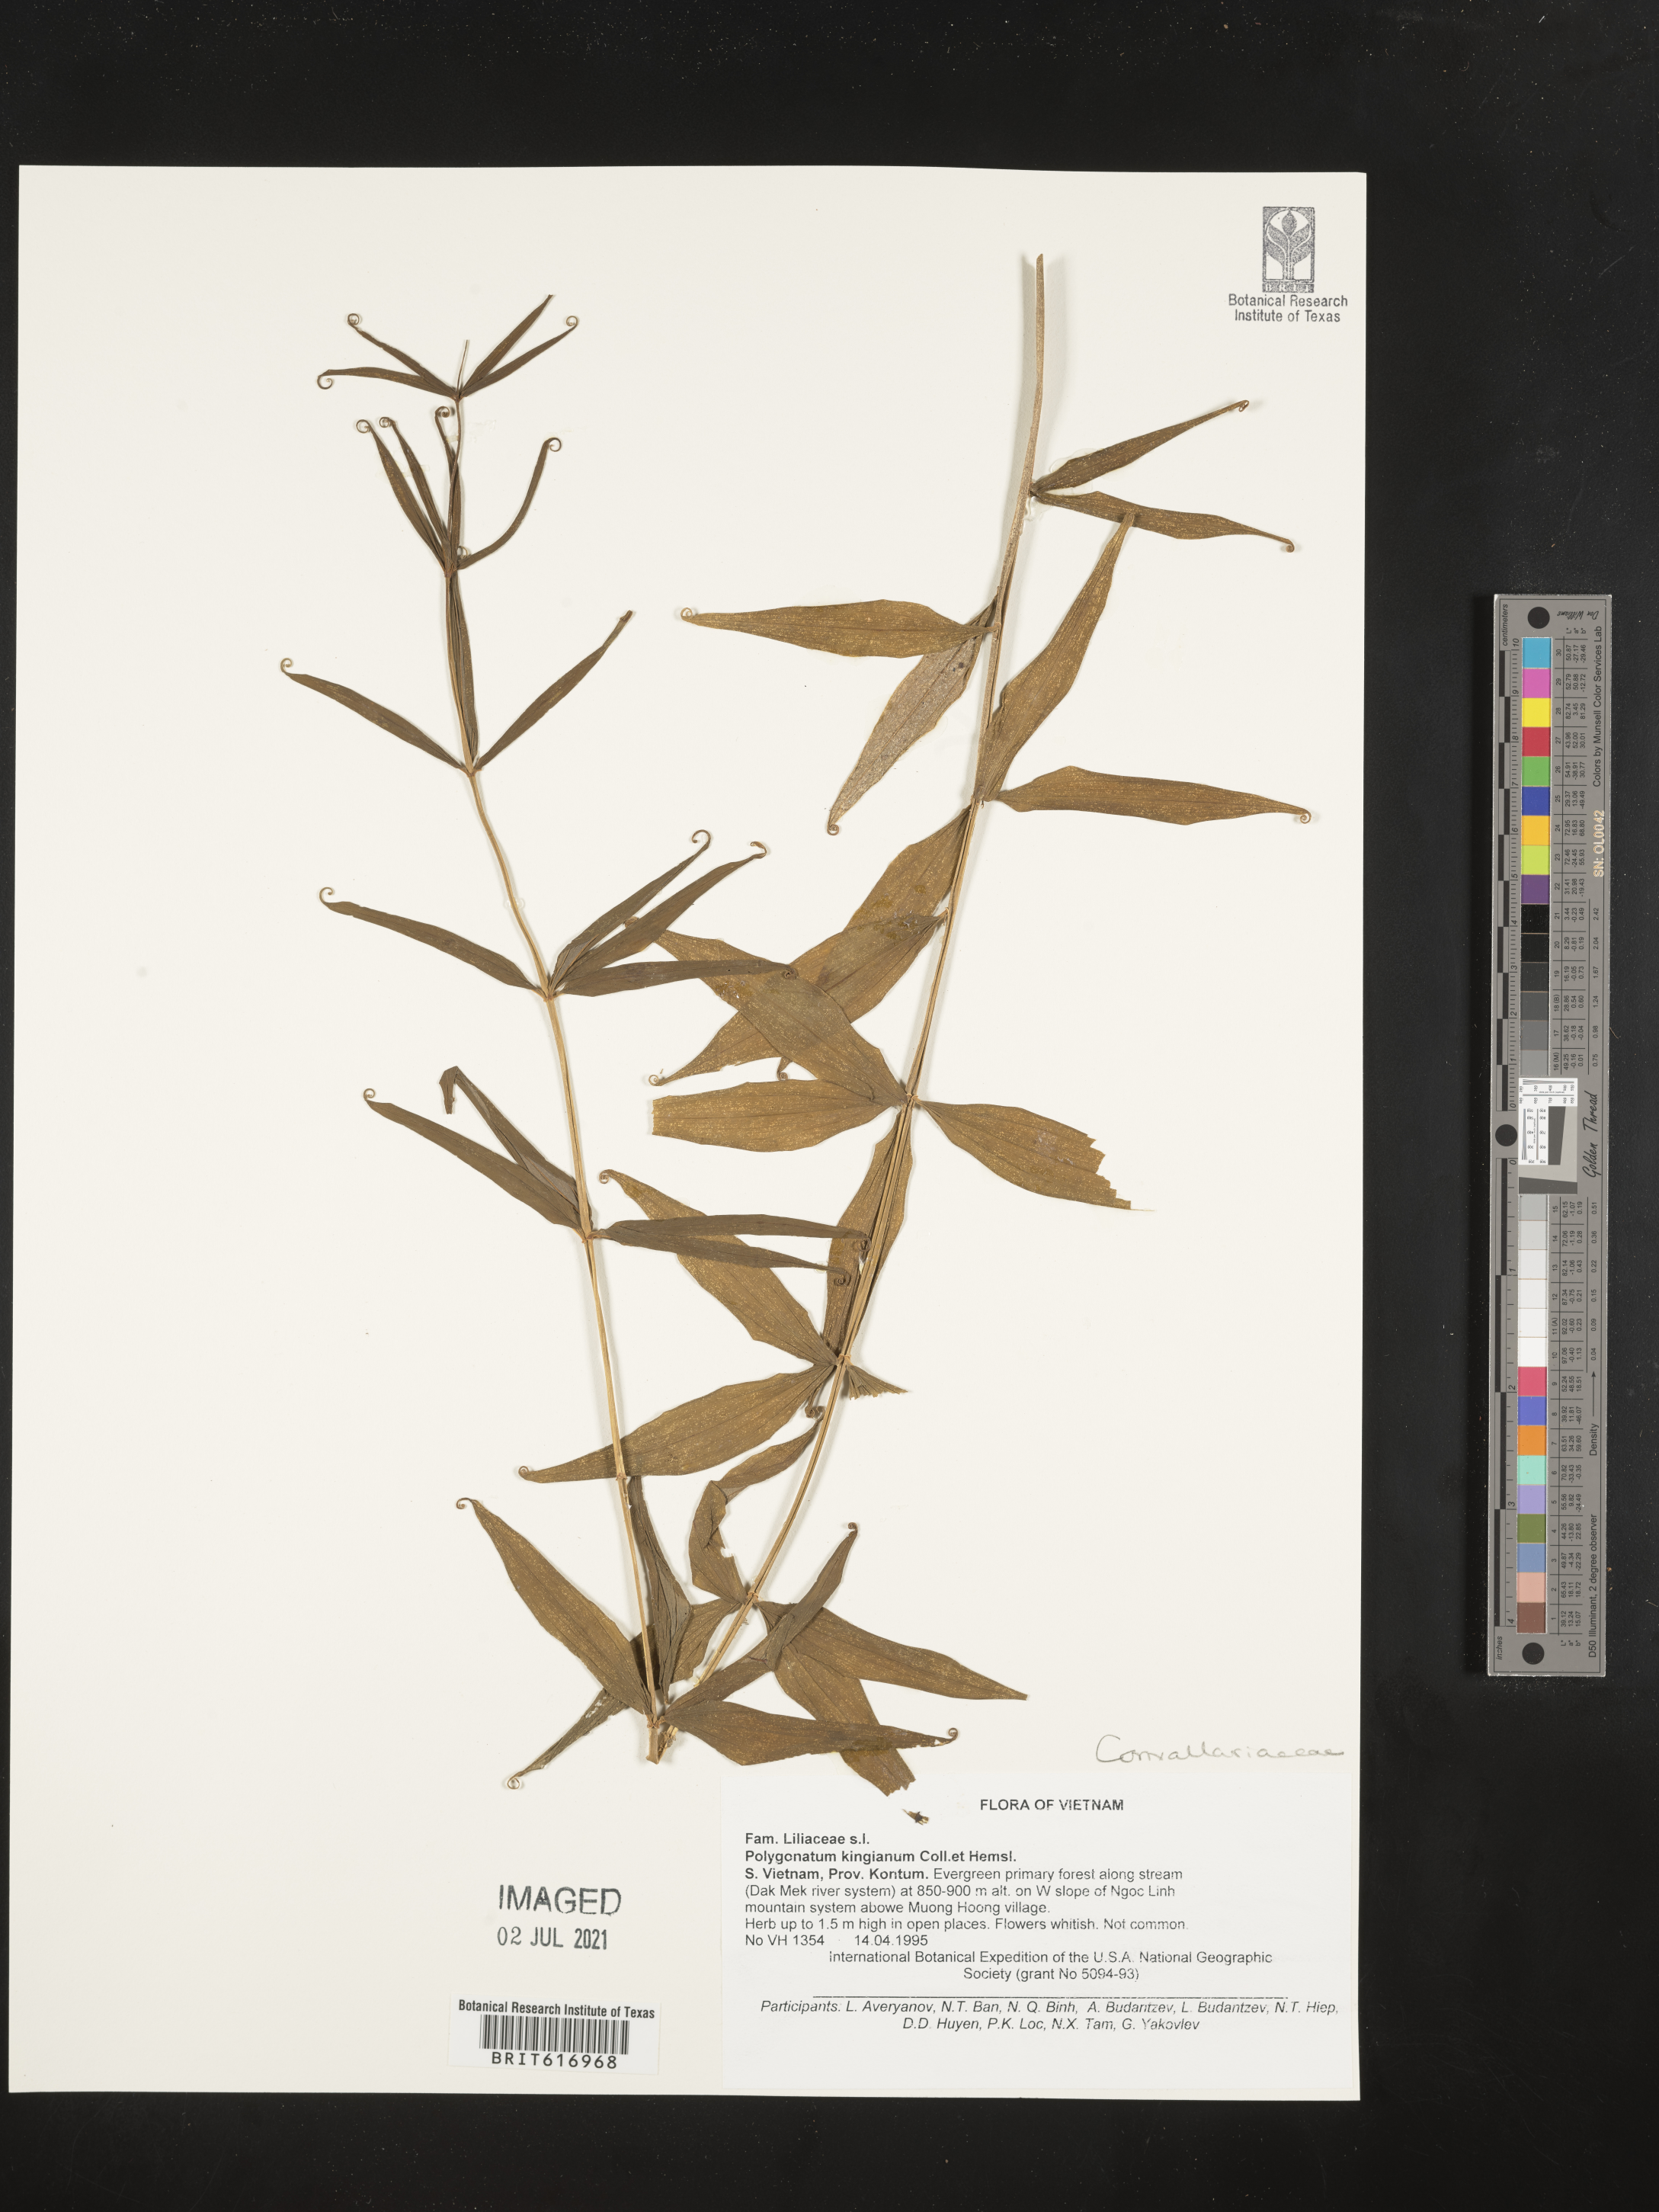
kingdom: Plantae
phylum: Tracheophyta
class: Liliopsida
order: Liliales
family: Liliaceae
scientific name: Liliaceae
